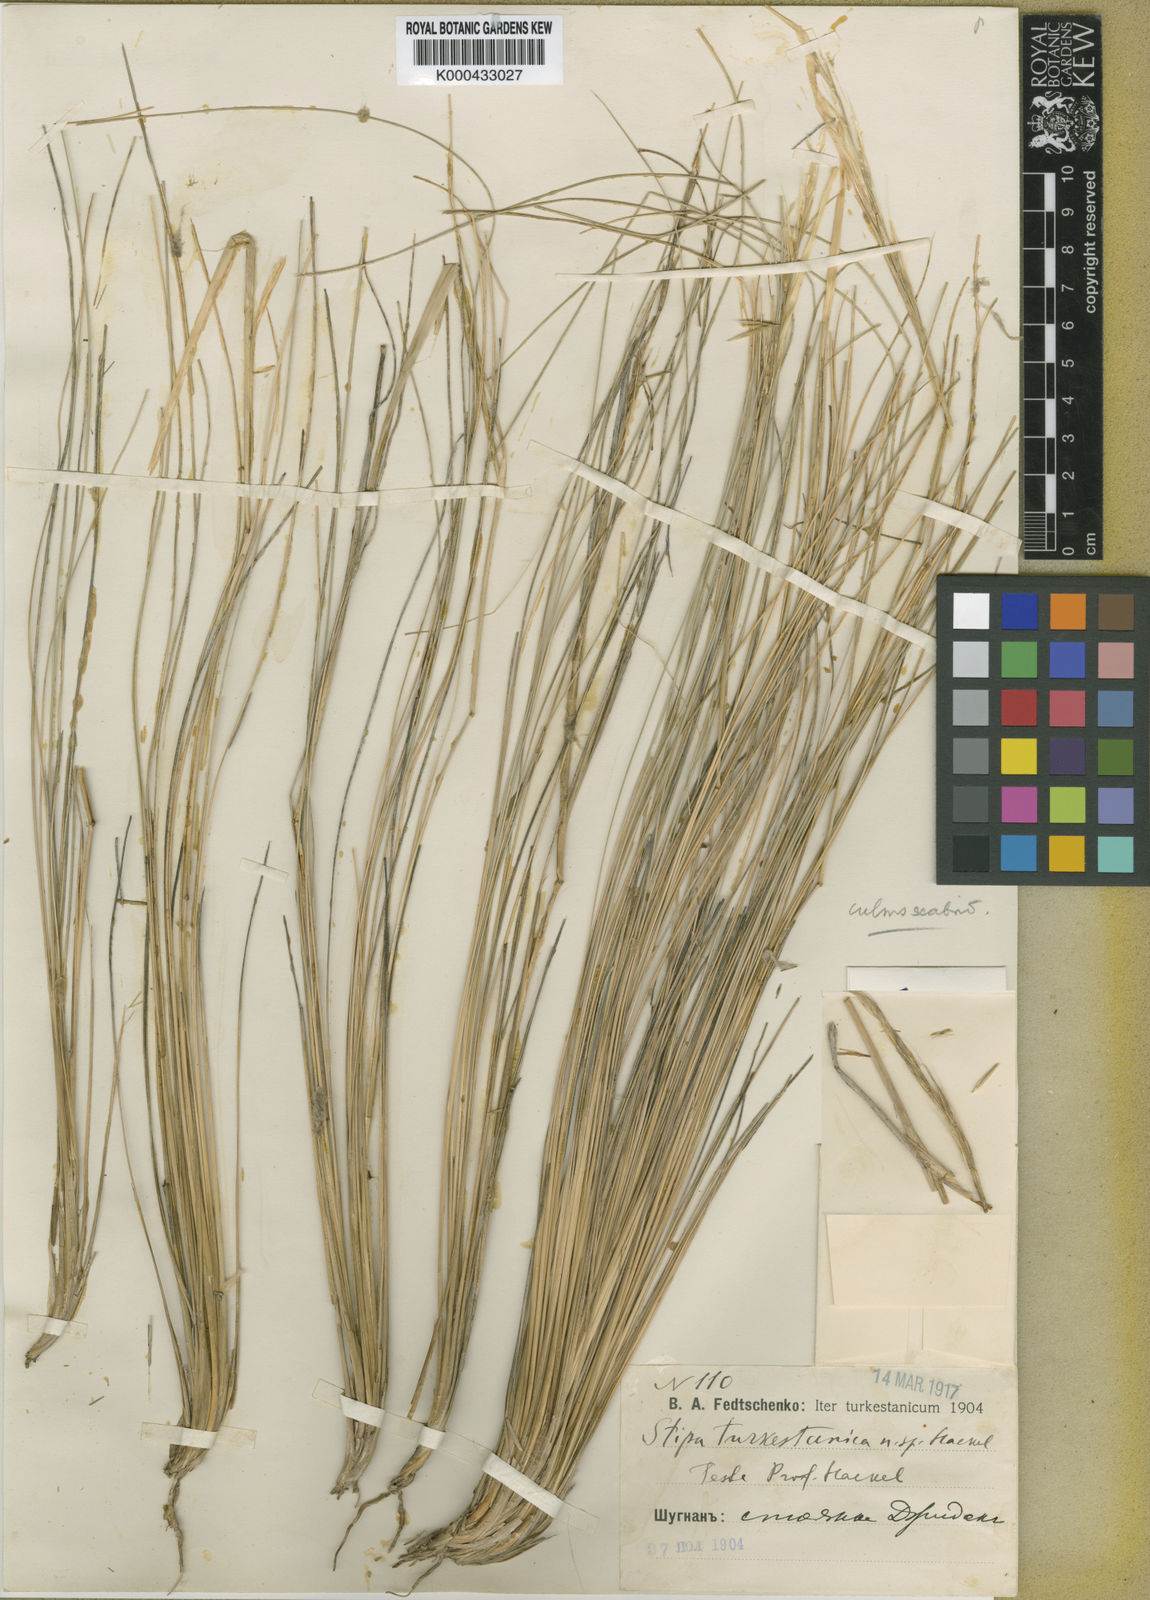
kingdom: Plantae
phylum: Tracheophyta
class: Liliopsida
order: Poales
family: Poaceae
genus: Stipa
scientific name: Stipa turkestanica
